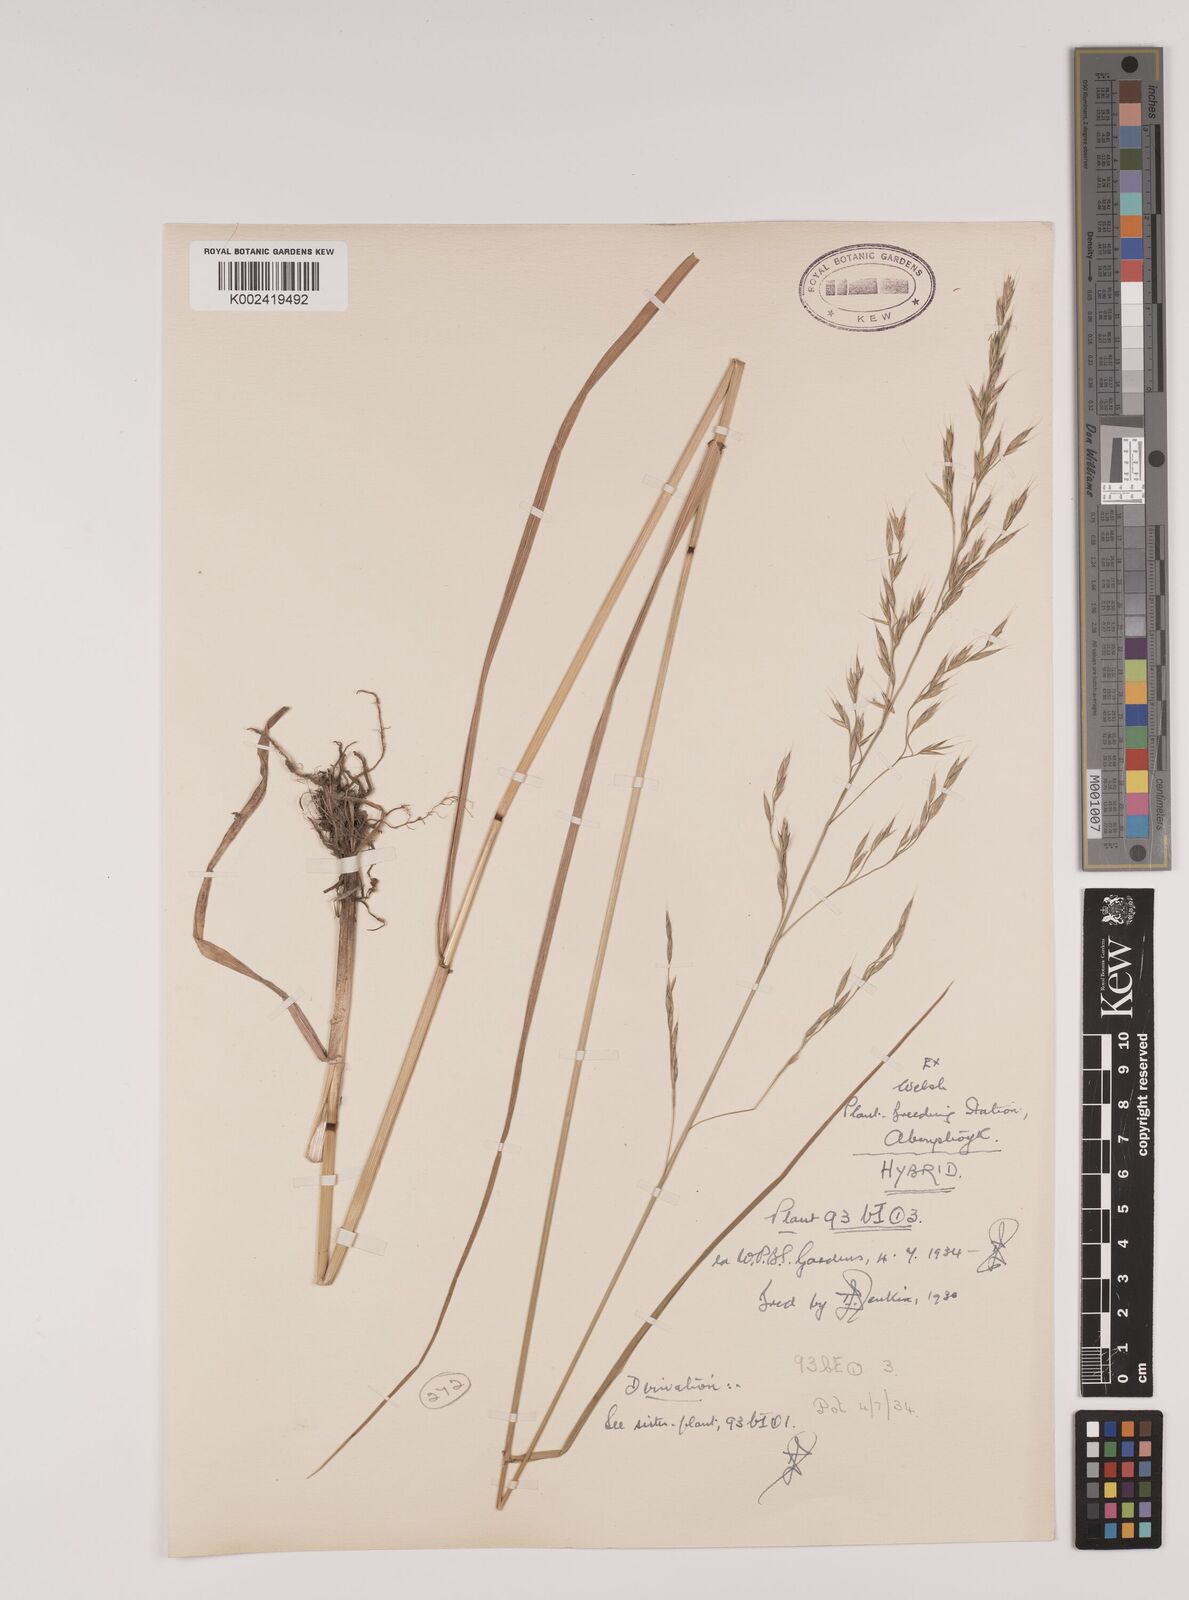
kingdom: Plantae
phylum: Tracheophyta
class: Liliopsida
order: Poales
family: Poaceae
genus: Lolium
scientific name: Lolium giganteum
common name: Giant fescue
